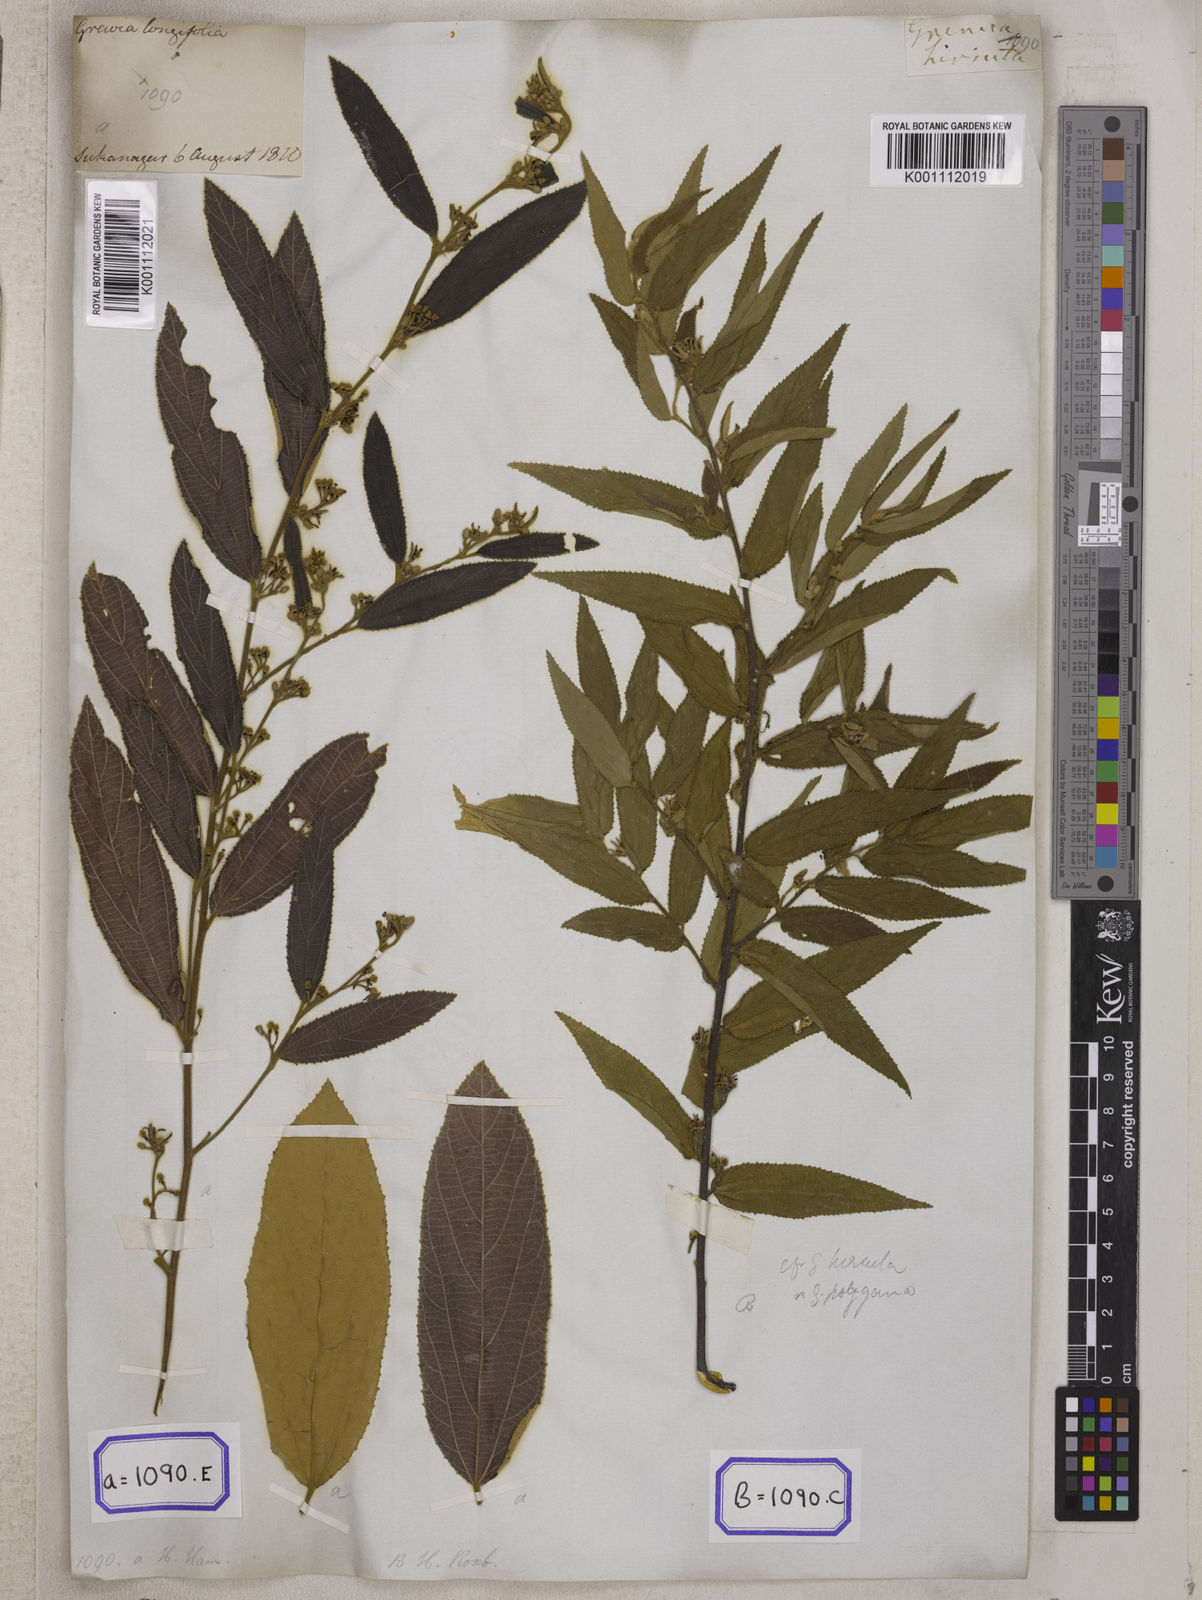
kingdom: Plantae
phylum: Tracheophyta
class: Magnoliopsida
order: Malvales
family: Malvaceae
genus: Grewia
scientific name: Grewia
